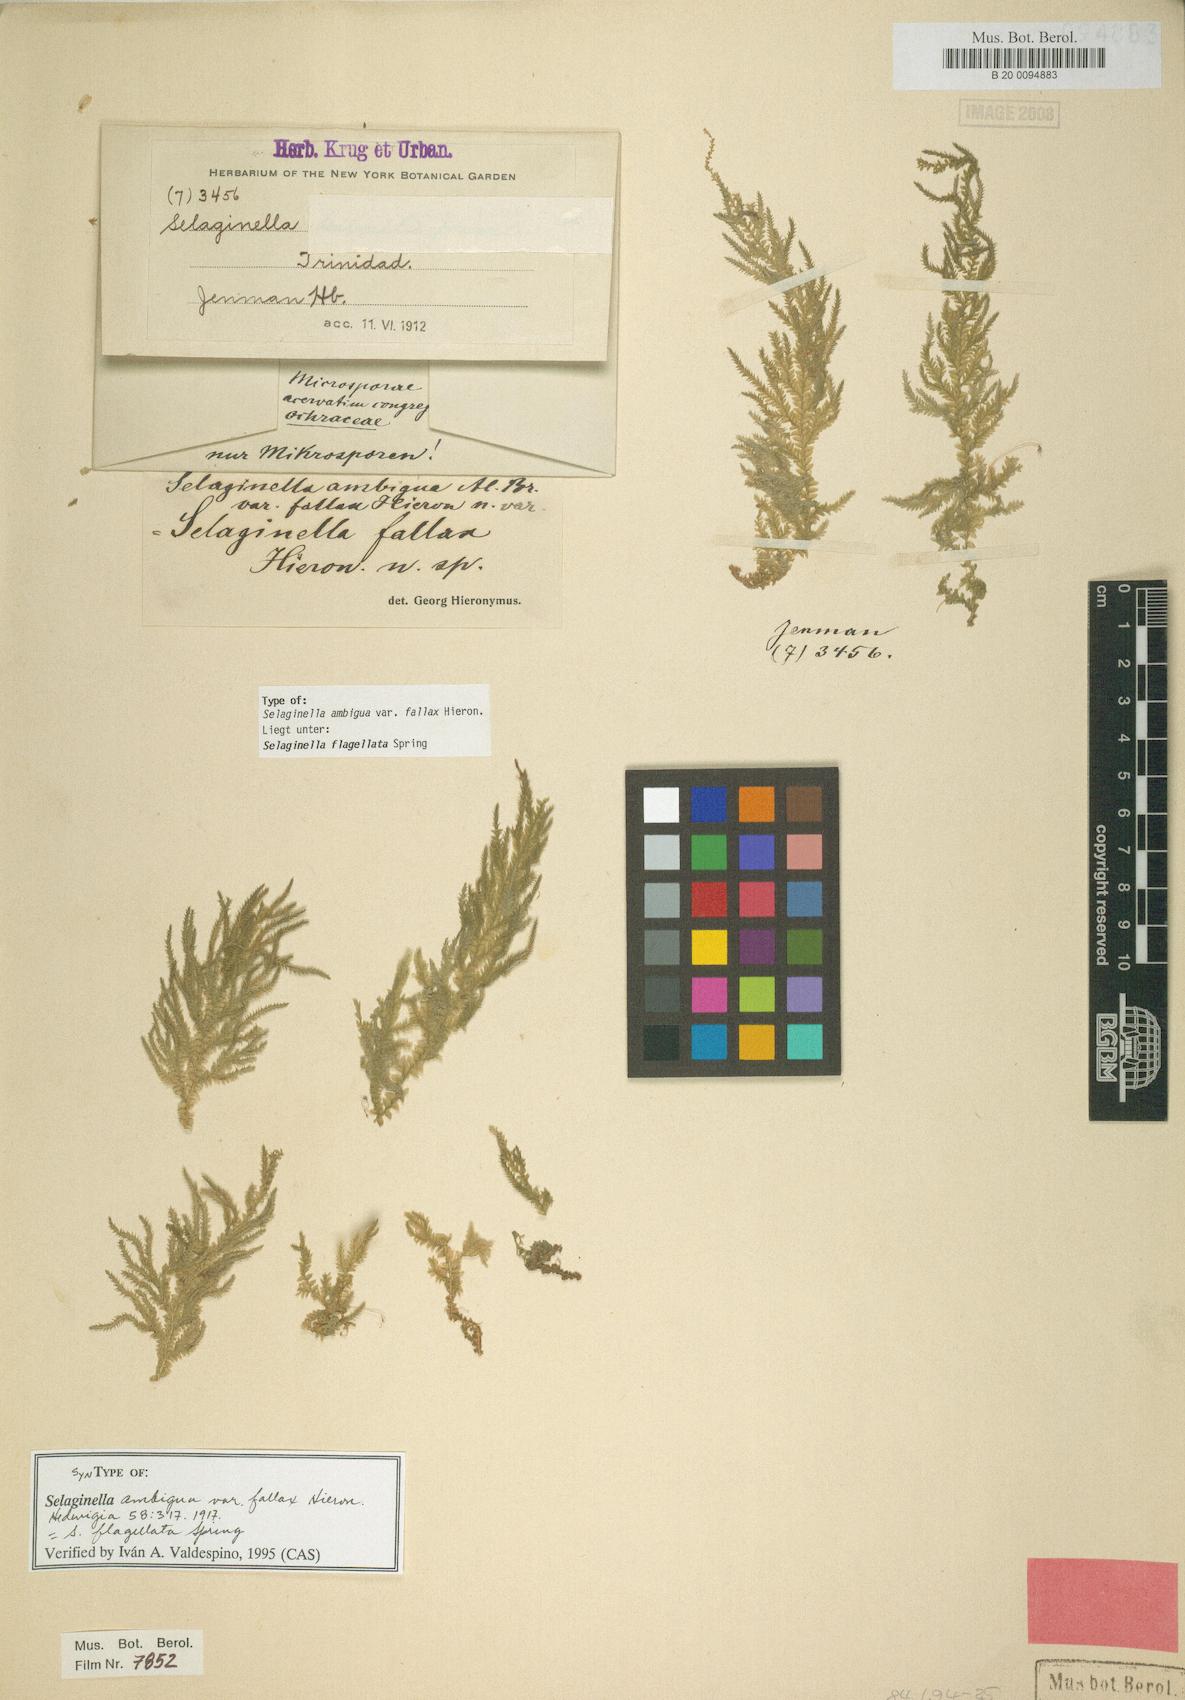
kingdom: Plantae
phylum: Tracheophyta
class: Lycopodiopsida
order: Selaginellales
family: Selaginellaceae
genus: Selaginella
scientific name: Selaginella flagellata
